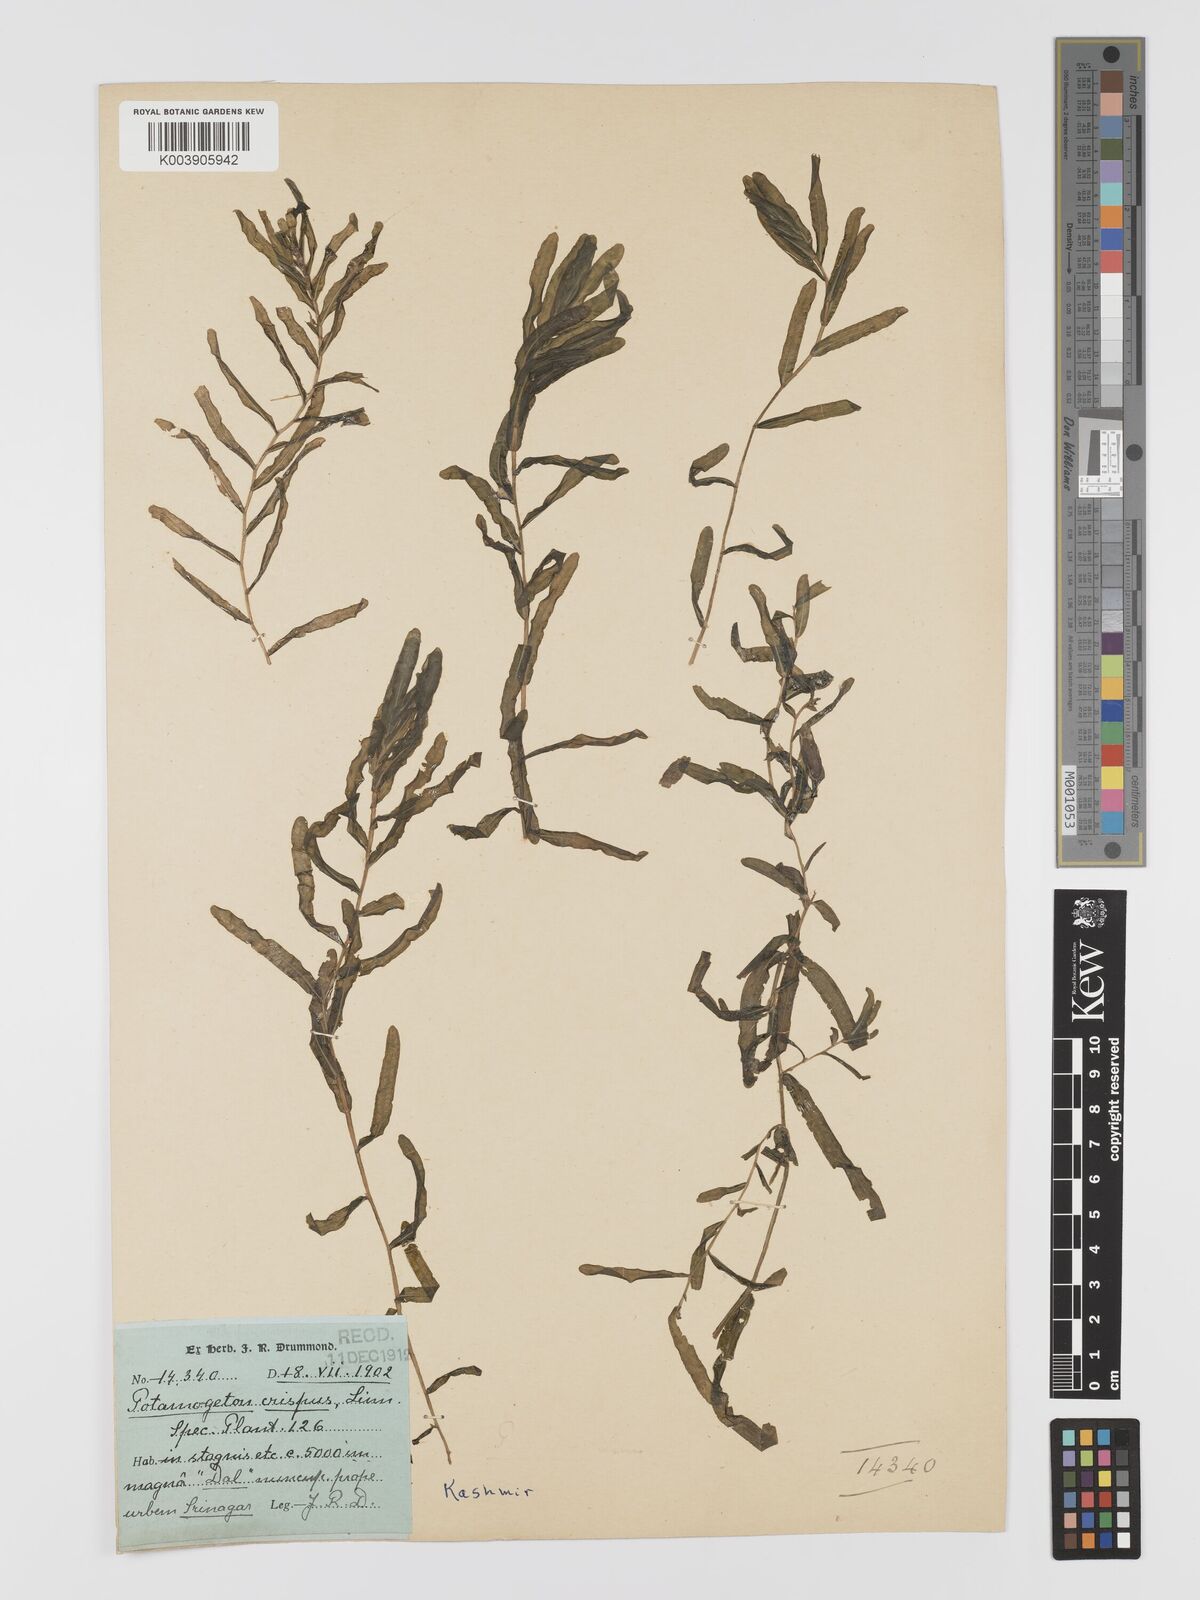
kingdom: Plantae
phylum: Tracheophyta
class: Liliopsida
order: Alismatales
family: Potamogetonaceae
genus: Potamogeton
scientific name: Potamogeton crispus
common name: Curled pondweed
